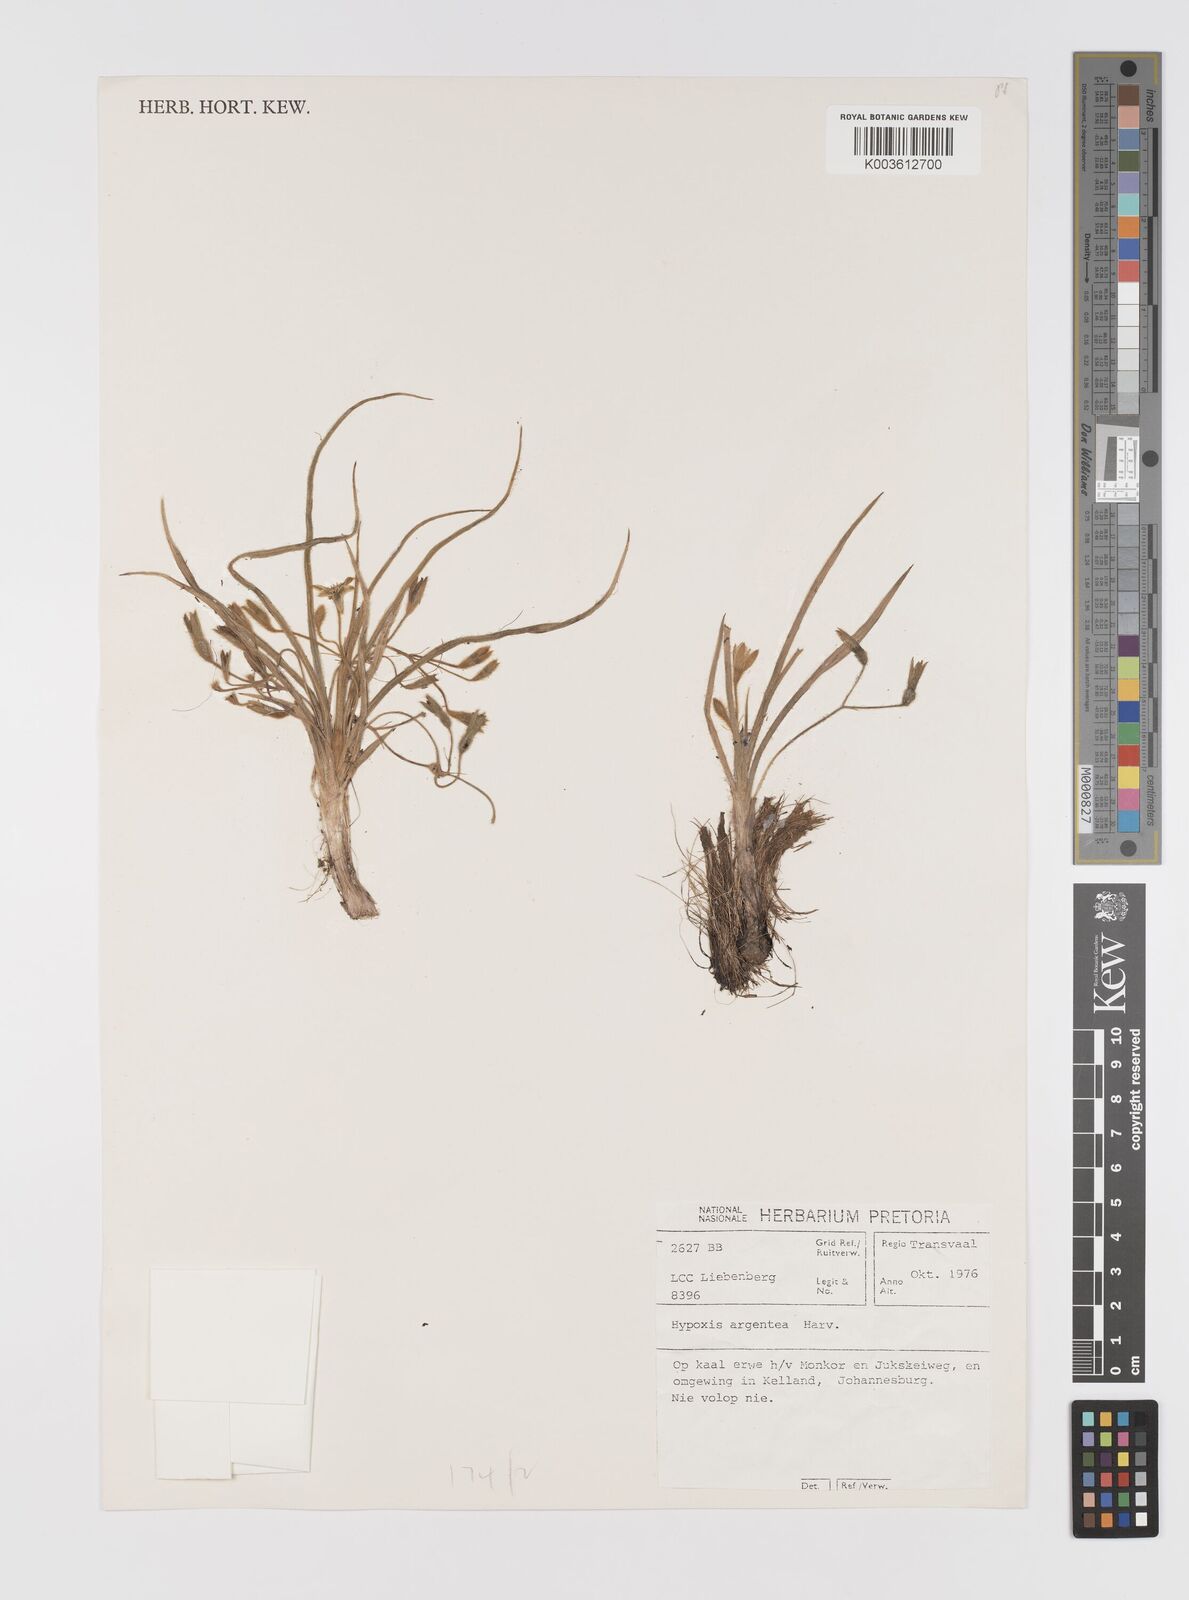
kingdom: Plantae
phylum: Tracheophyta
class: Liliopsida
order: Asparagales
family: Hypoxidaceae
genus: Hypoxis
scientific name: Hypoxis argentea
